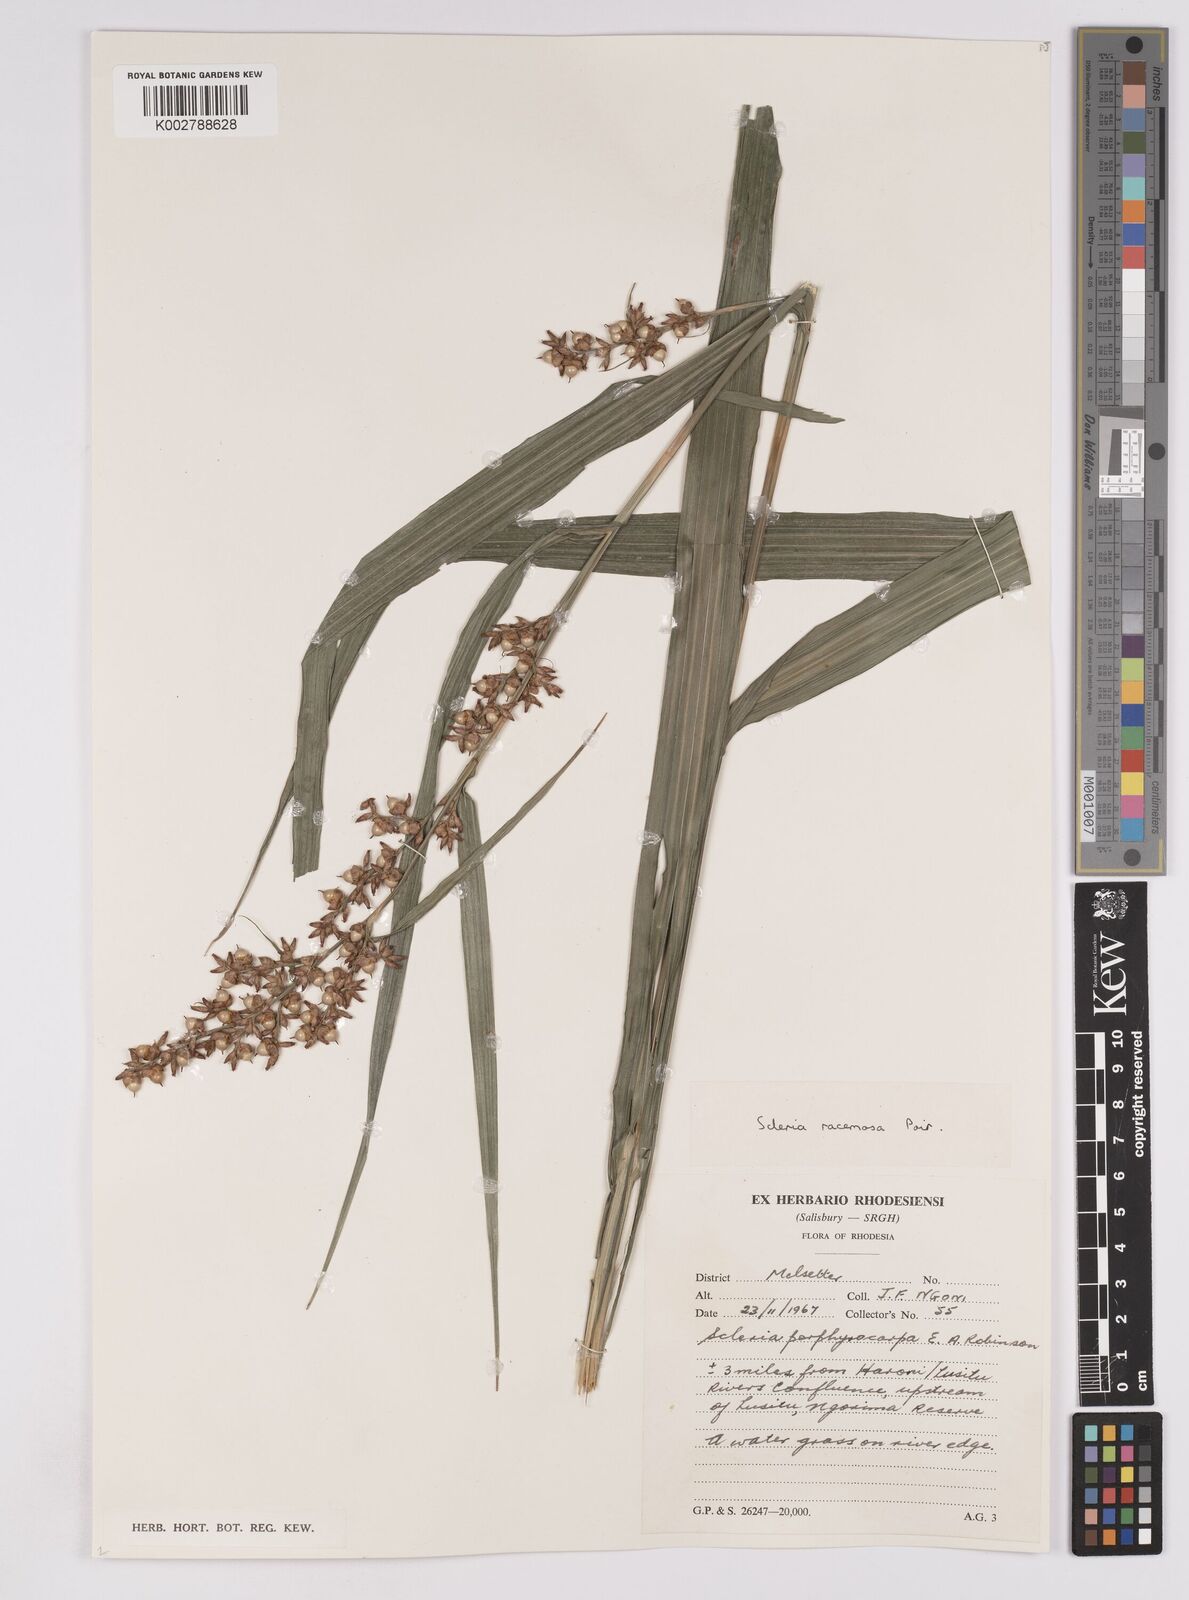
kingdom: Plantae
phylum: Tracheophyta
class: Liliopsida
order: Poales
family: Cyperaceae
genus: Scleria
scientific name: Scleria racemosa
